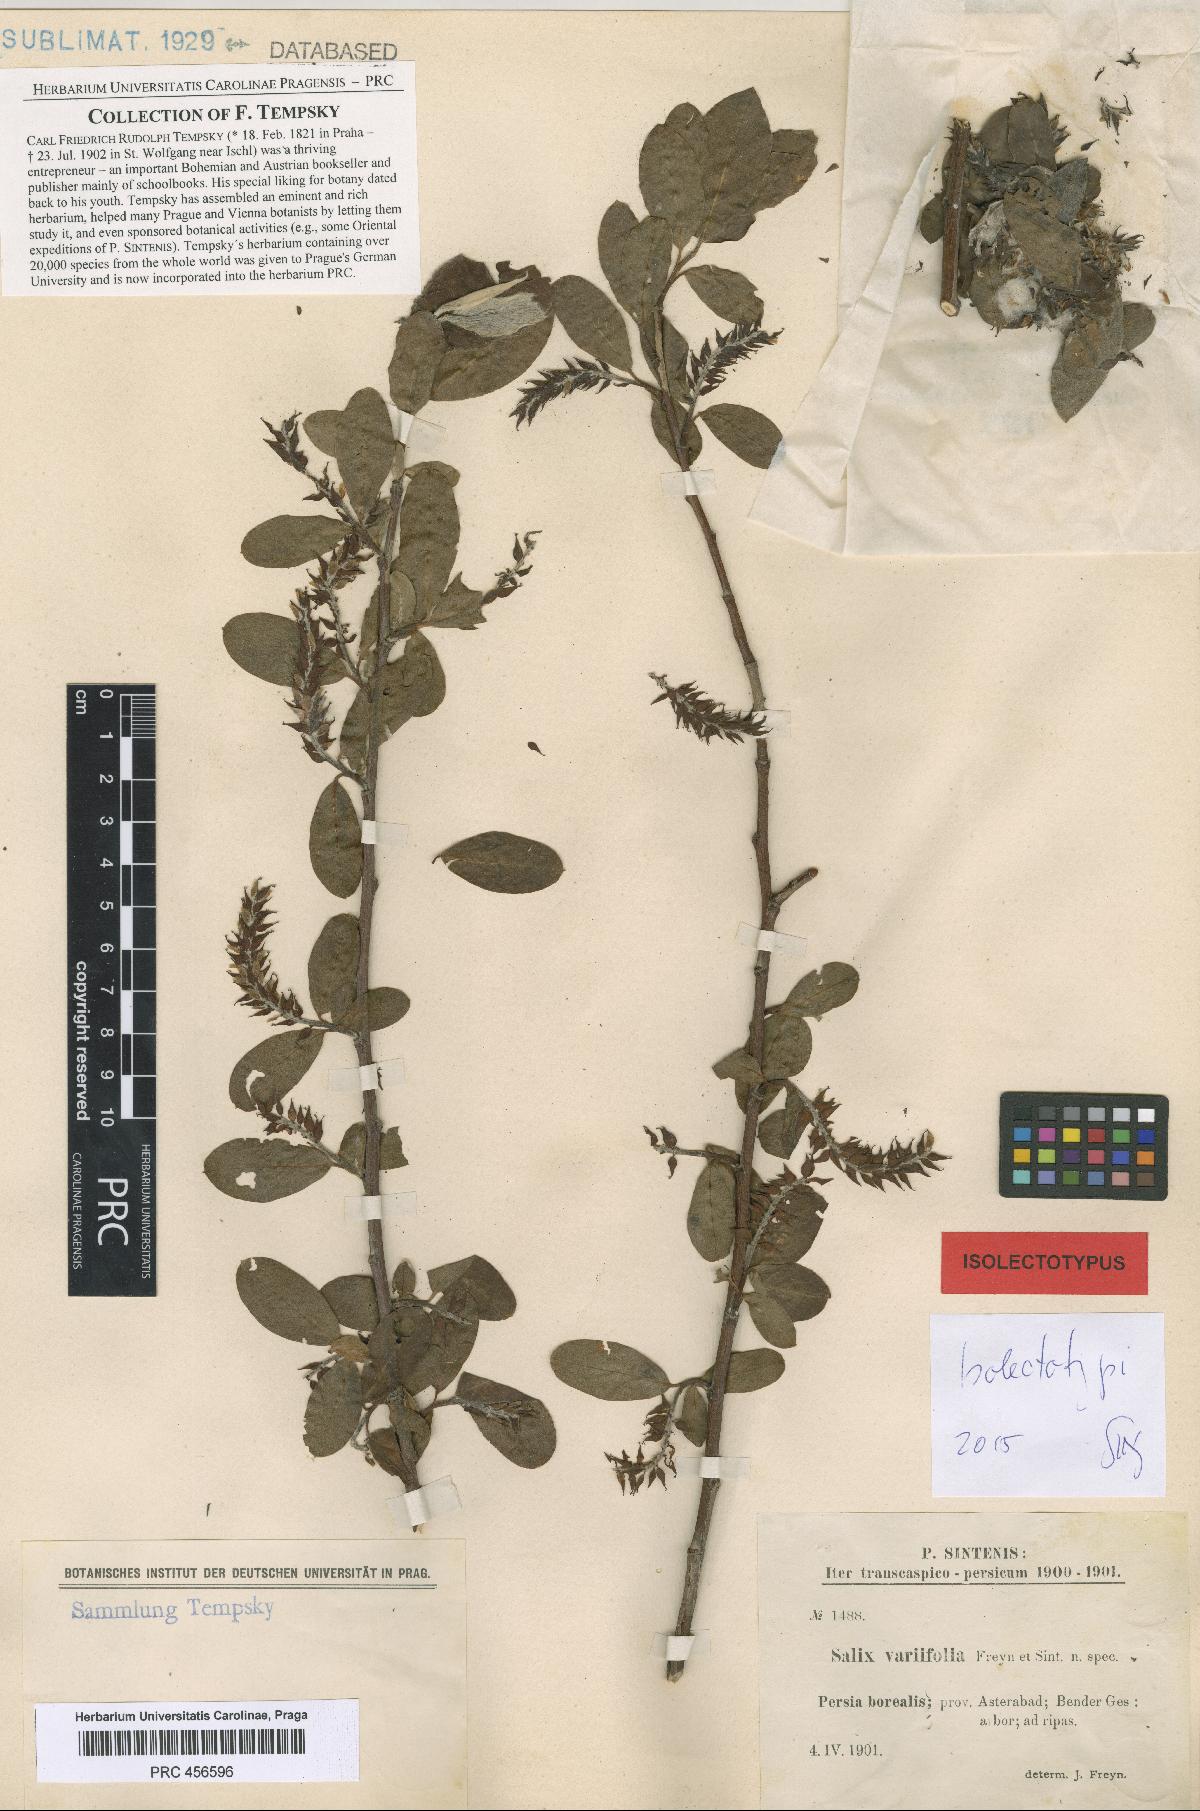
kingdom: Plantae
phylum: Tracheophyta
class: Magnoliopsida
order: Malpighiales
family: Salicaceae
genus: Salix
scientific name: Salix excelsa
